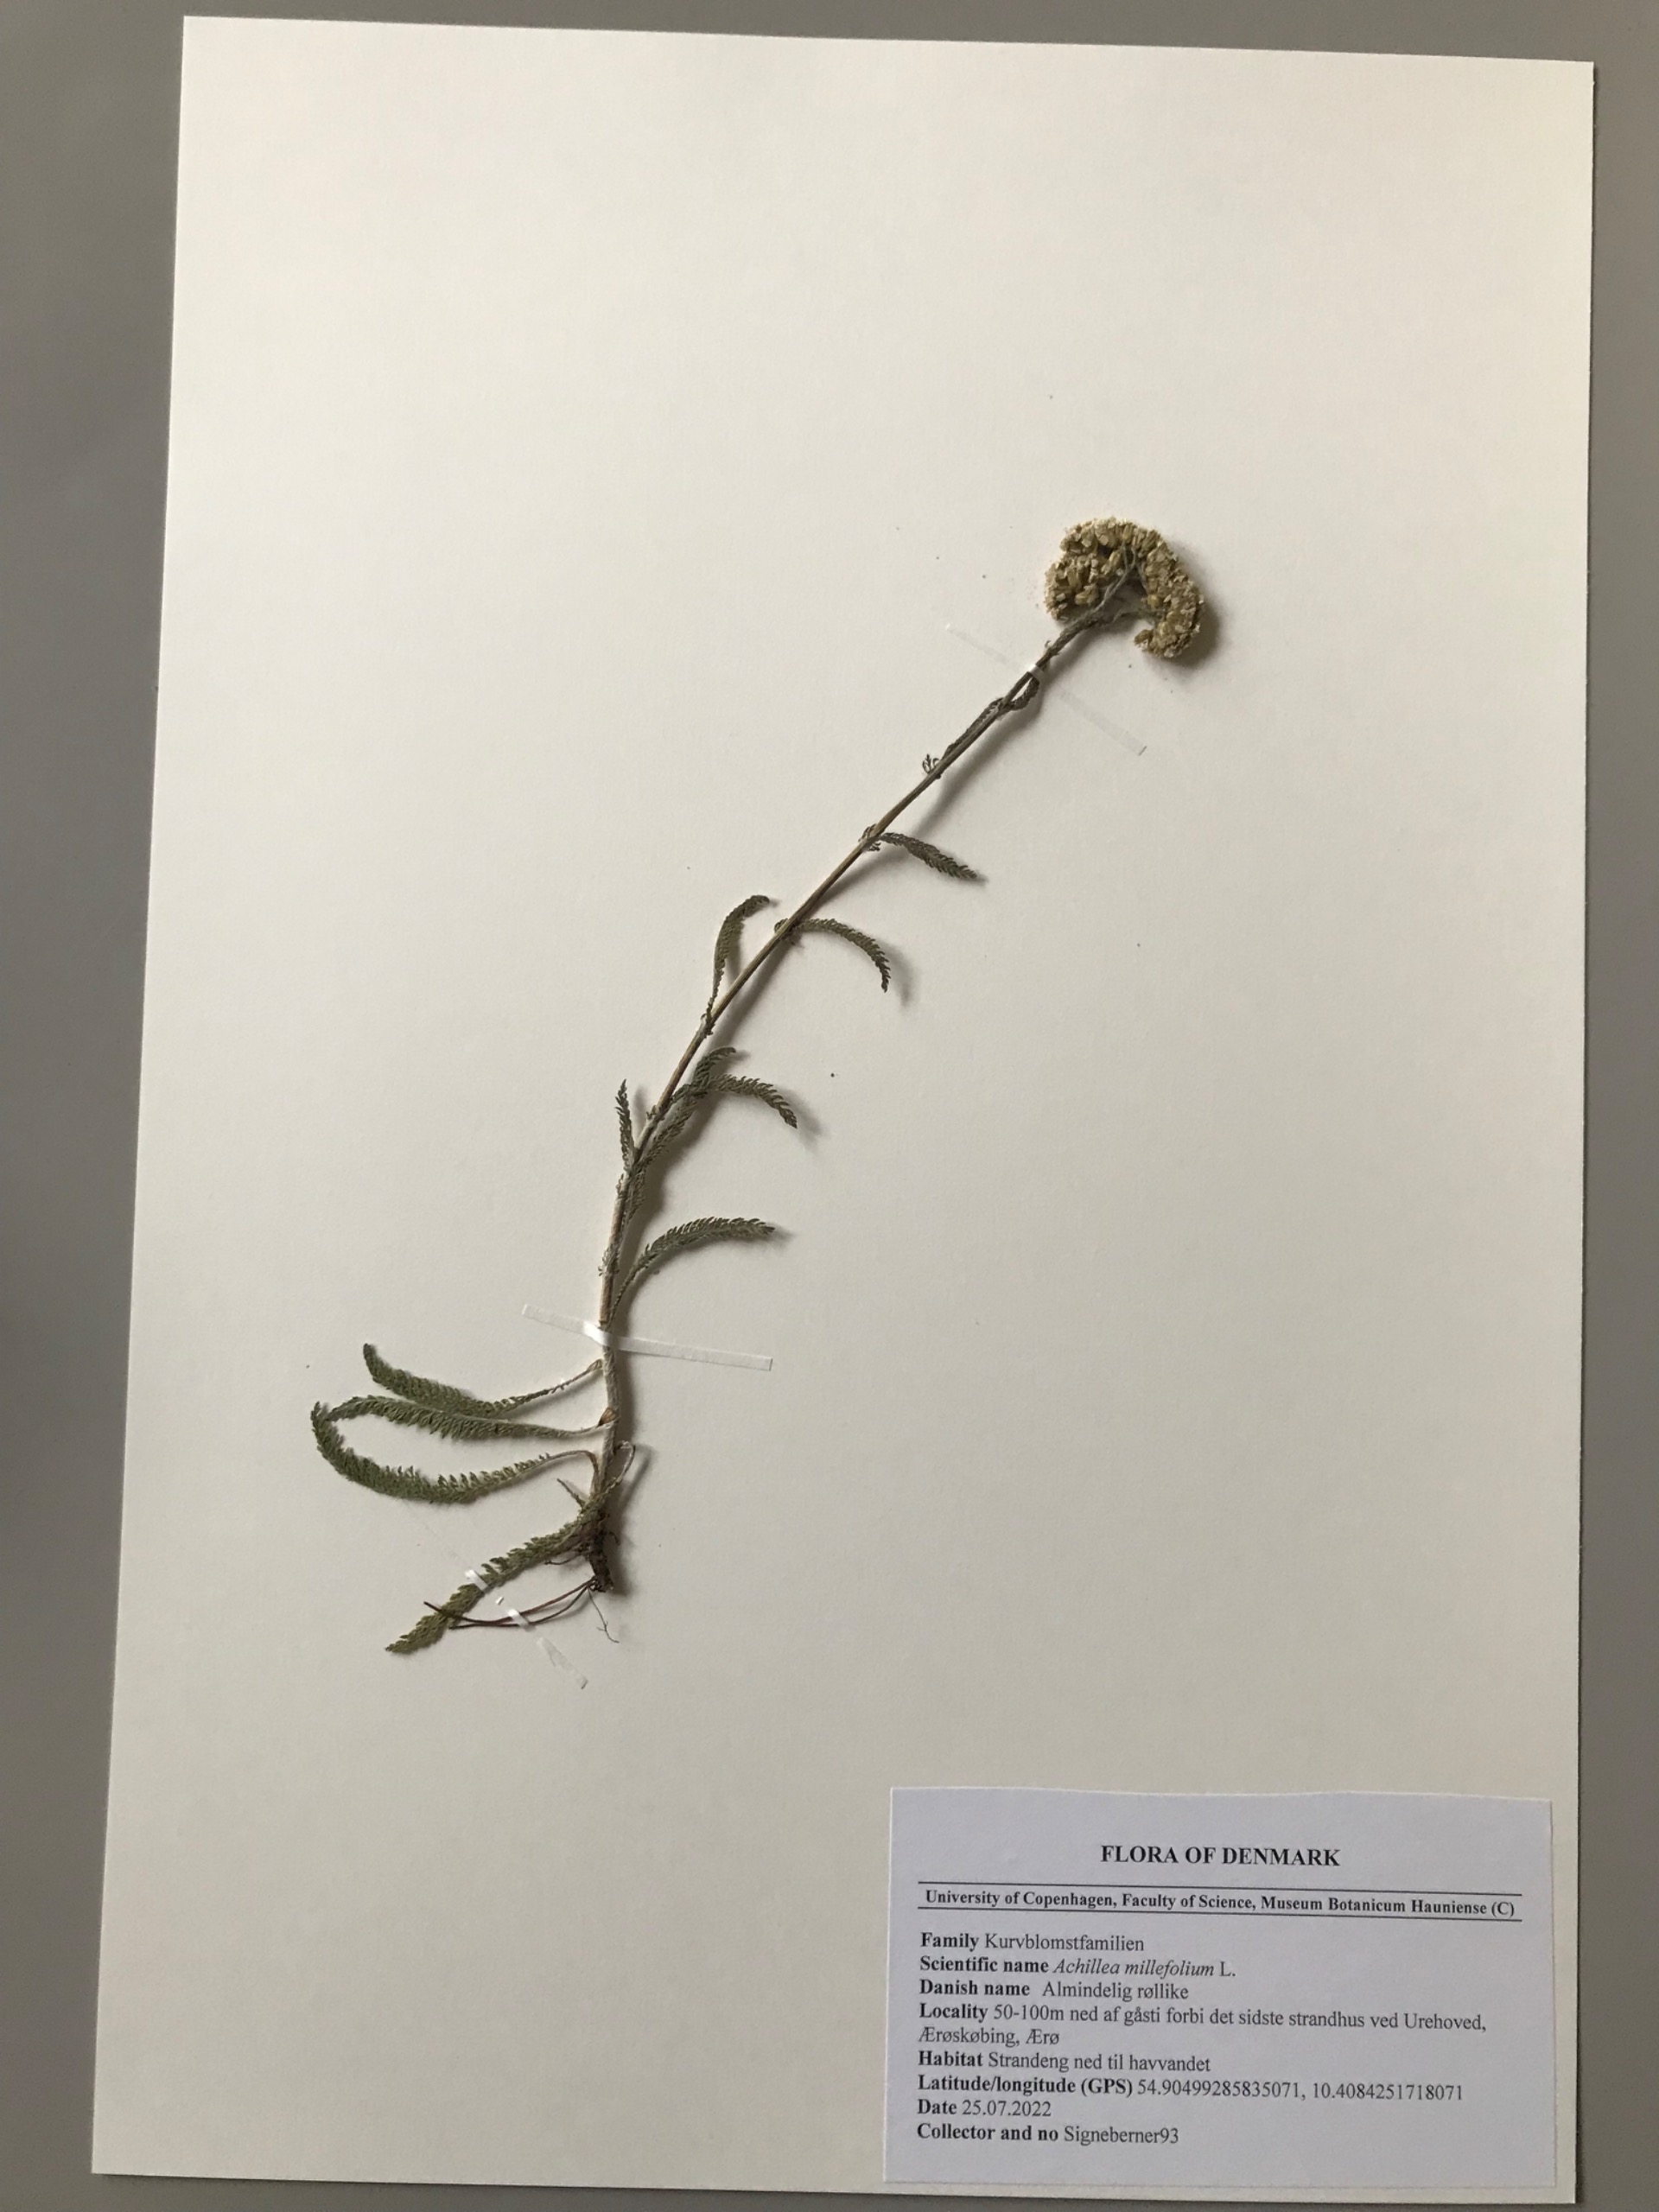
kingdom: Plantae
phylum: Tracheophyta
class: Magnoliopsida
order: Asterales
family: Asteraceae
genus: Achillea
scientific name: Achillea millefolium
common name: Almindelig røllike
